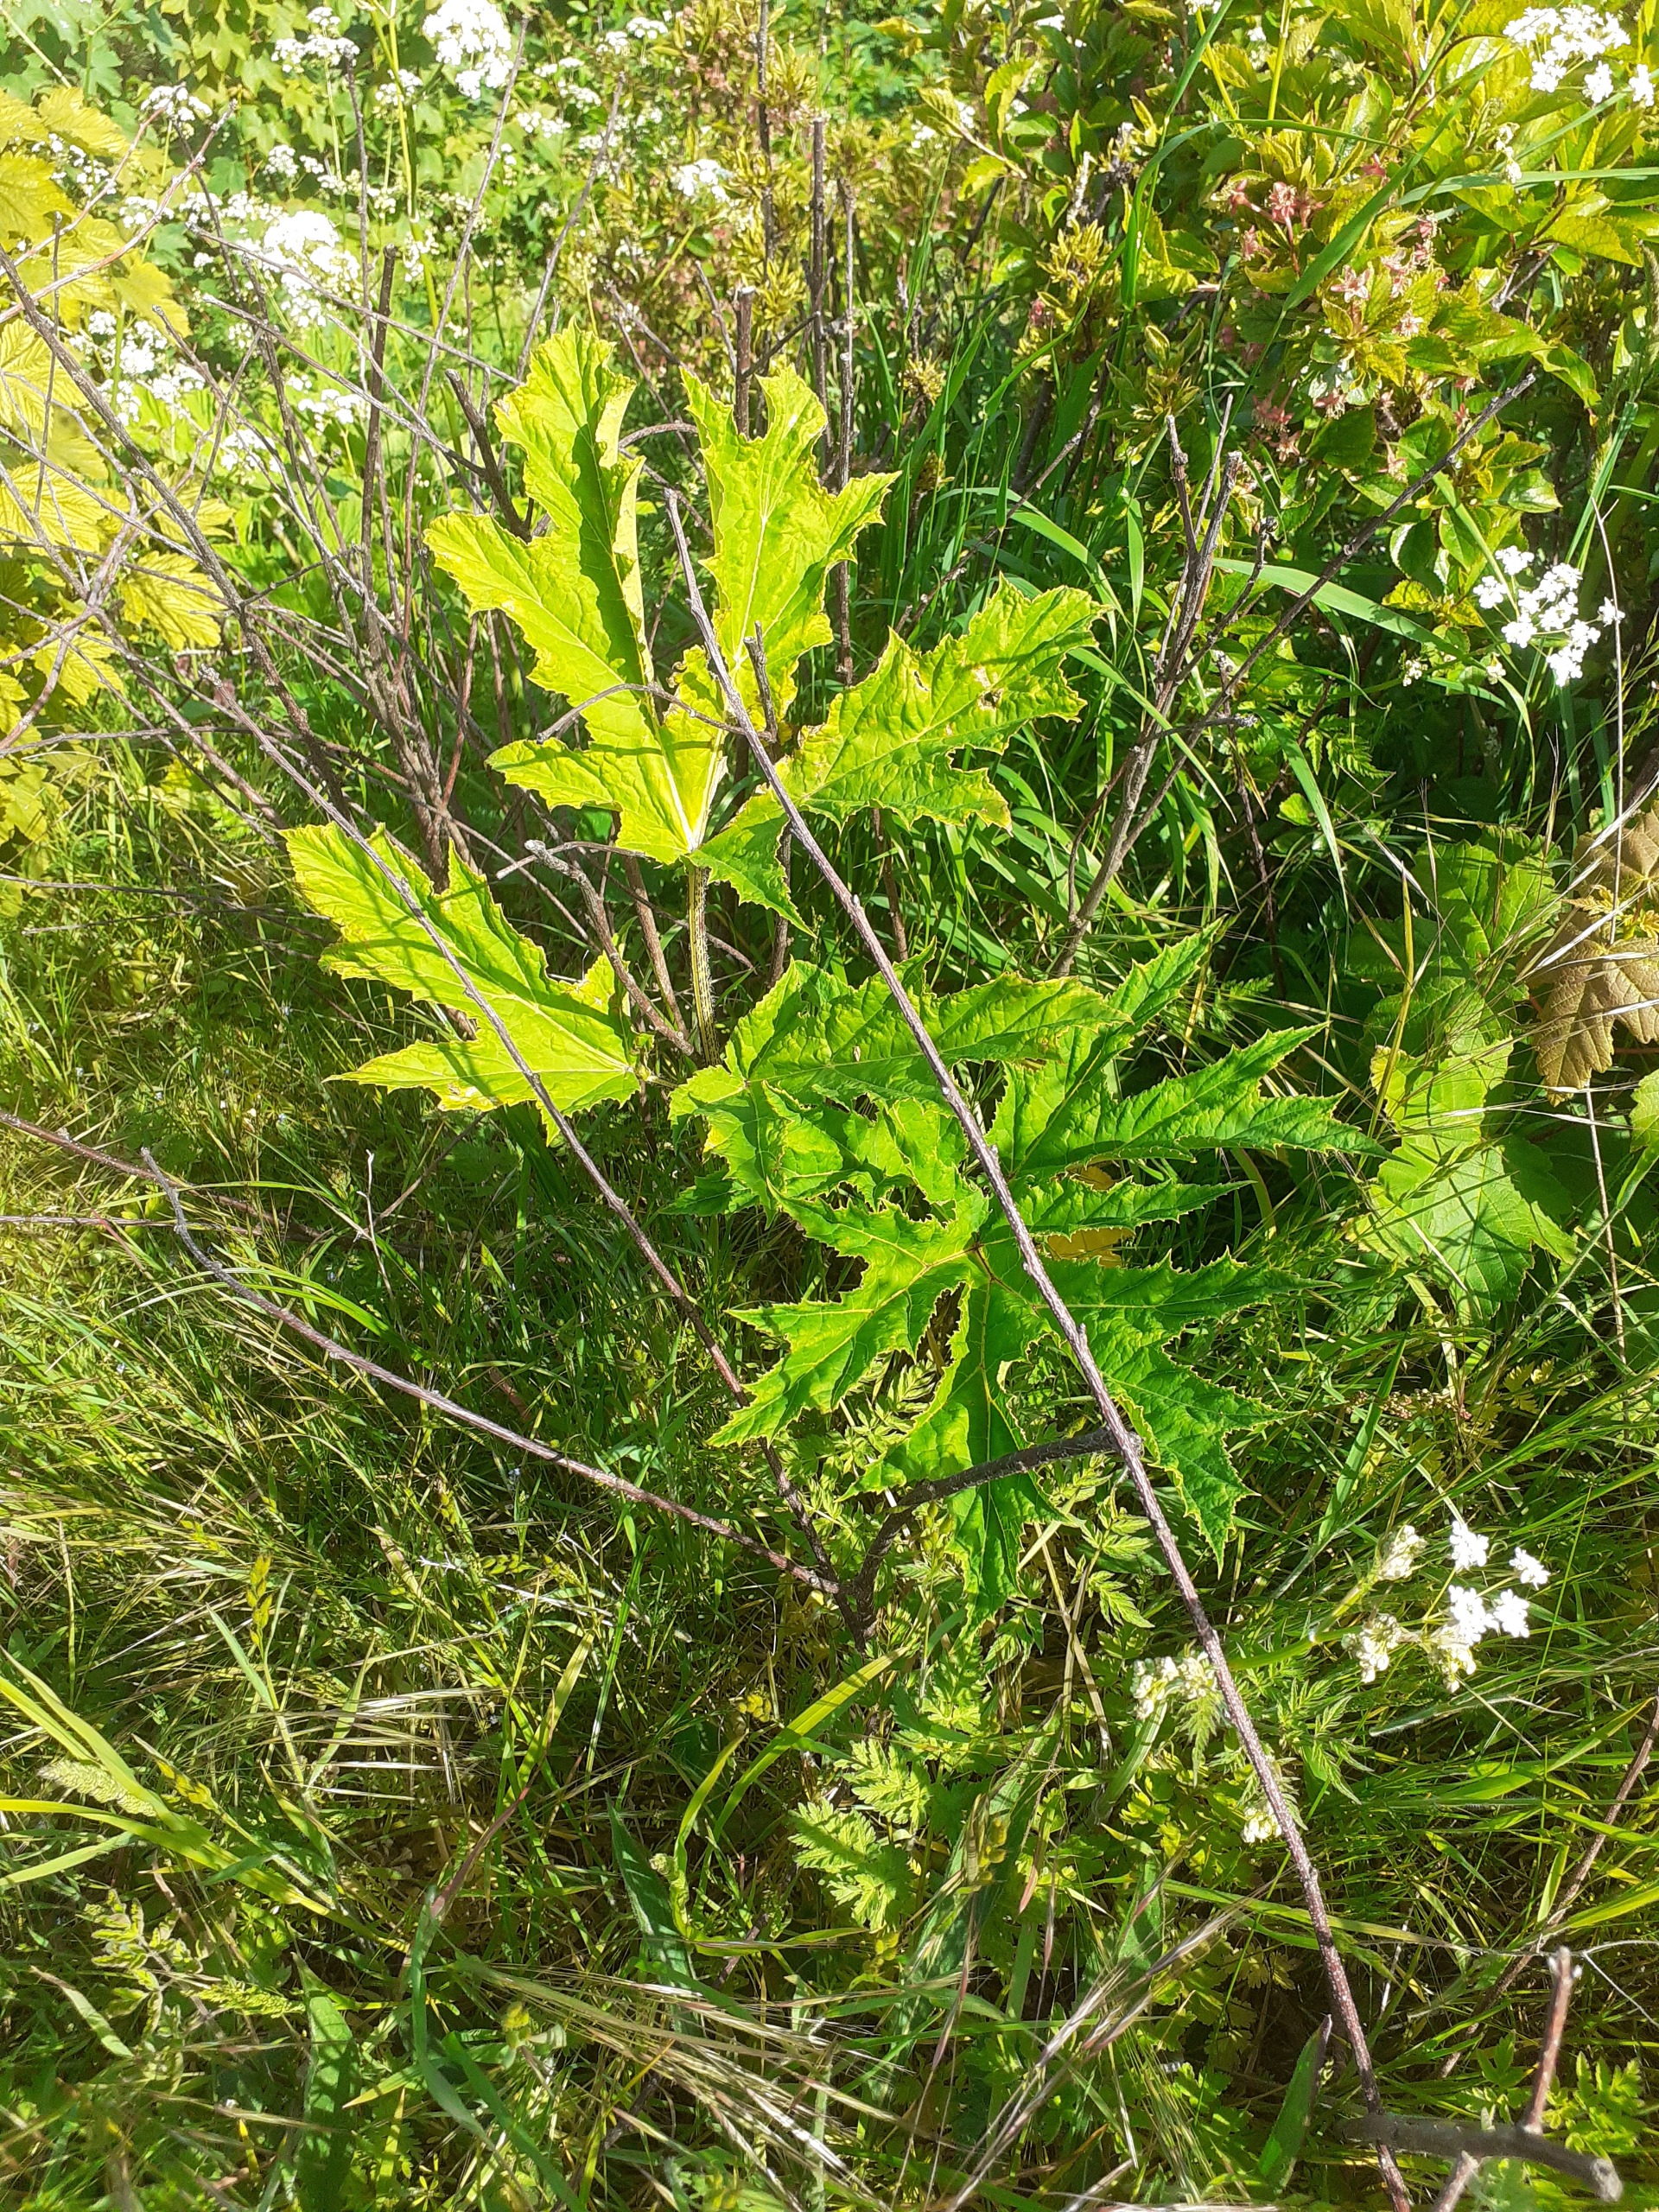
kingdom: Plantae
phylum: Tracheophyta
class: Magnoliopsida
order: Apiales
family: Apiaceae
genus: Heracleum
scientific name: Heracleum mantegazzianum
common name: Kæmpe-bjørneklo
